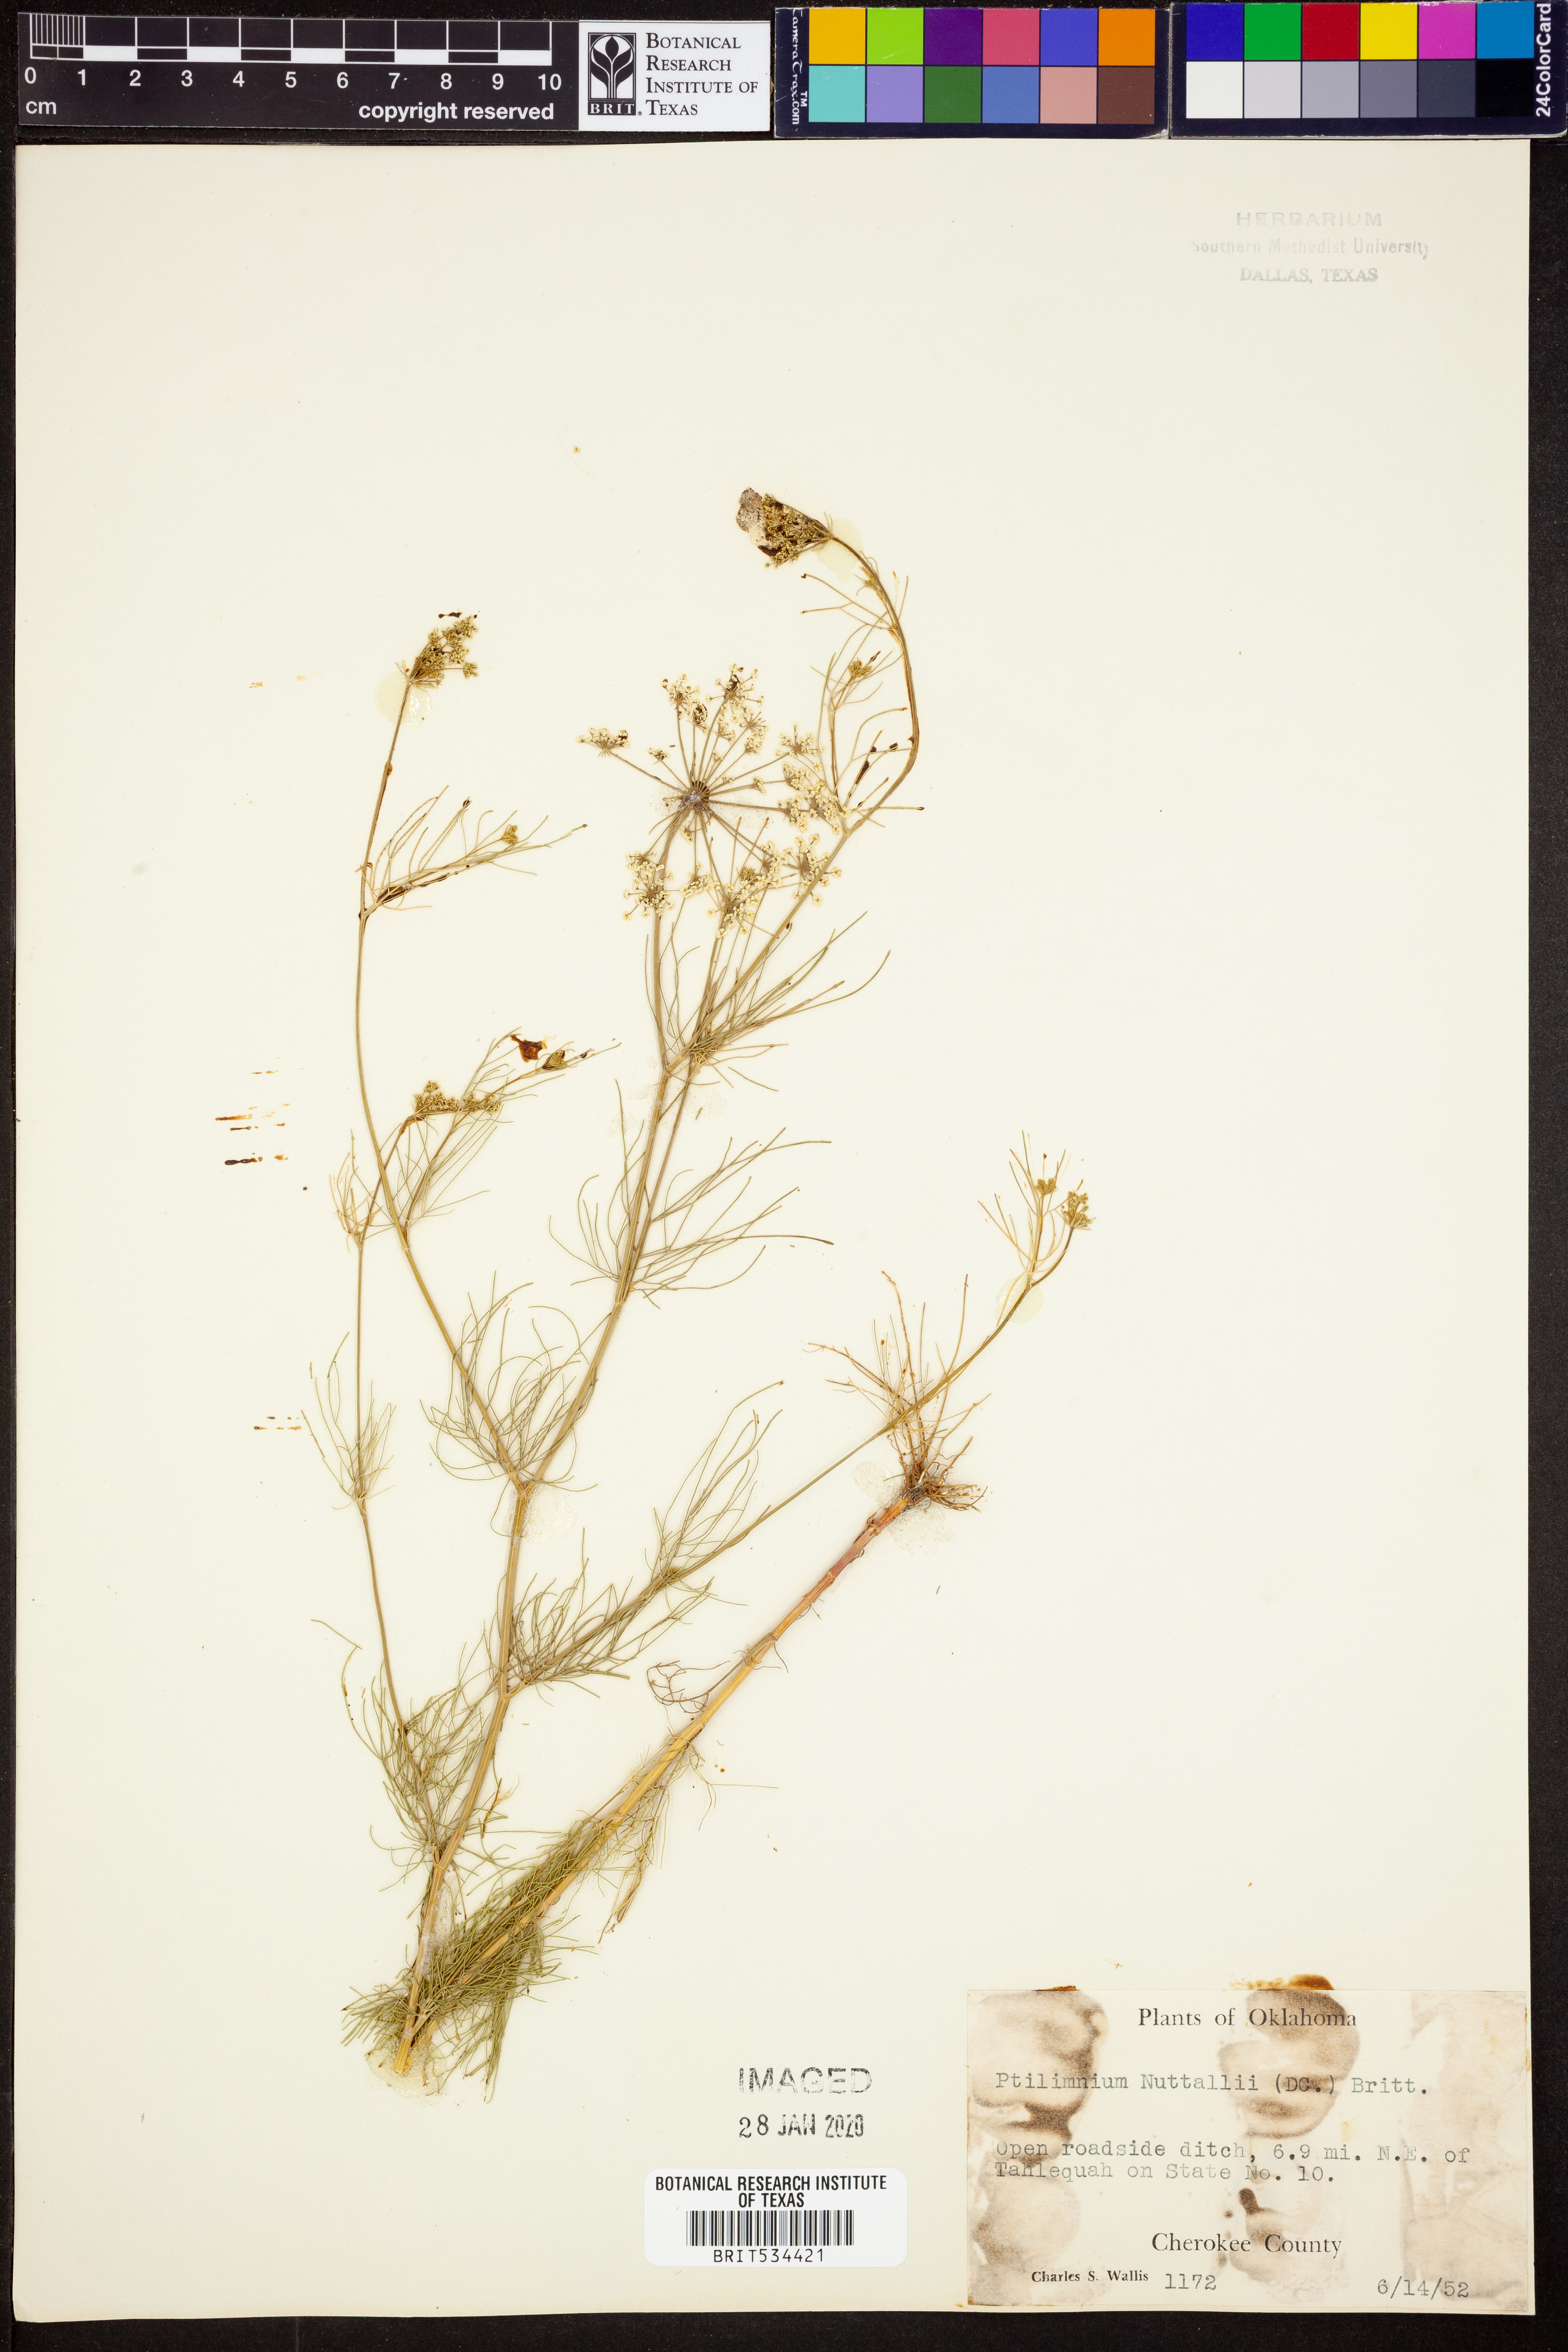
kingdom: Plantae
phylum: Tracheophyta
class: Magnoliopsida
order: Apiales
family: Apiaceae
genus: Ptilimnium
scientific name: Ptilimnium nuttallii
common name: Ozark bishop's-weed
